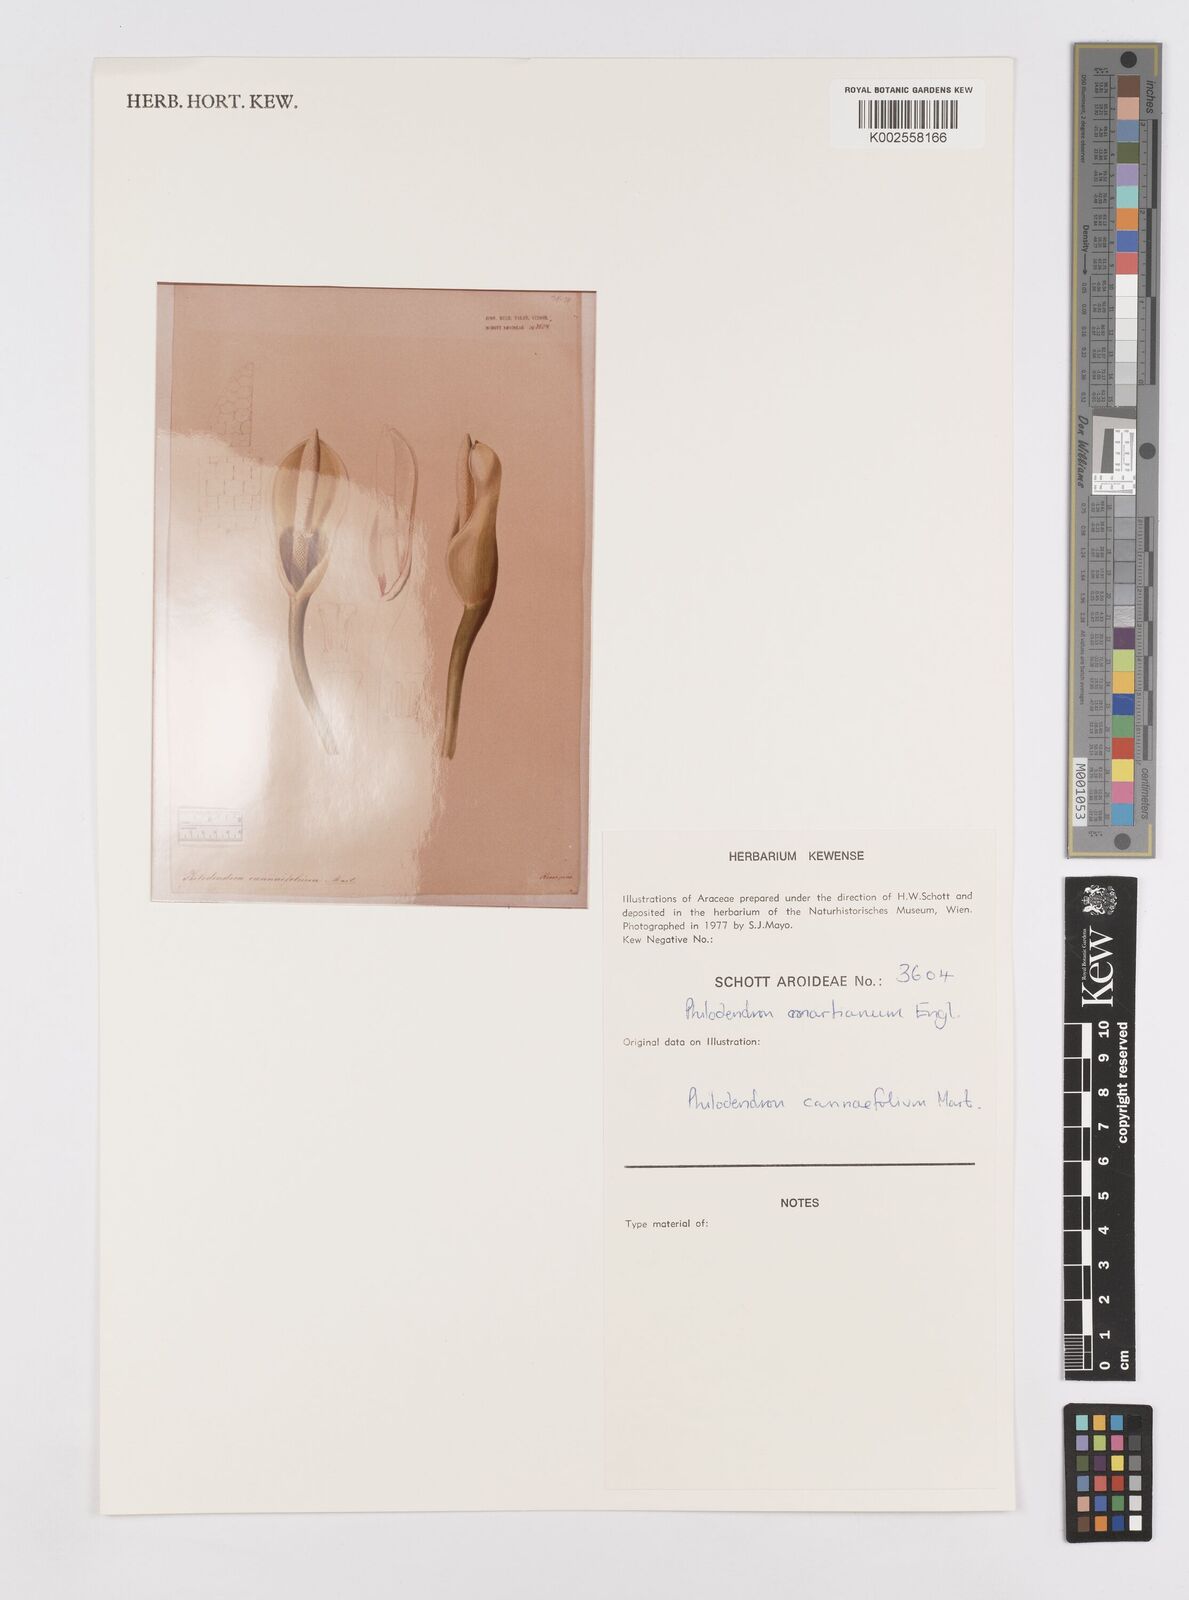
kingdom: Plantae
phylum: Tracheophyta
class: Liliopsida
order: Alismatales
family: Araceae
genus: Philodendron
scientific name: Philodendron martianum
